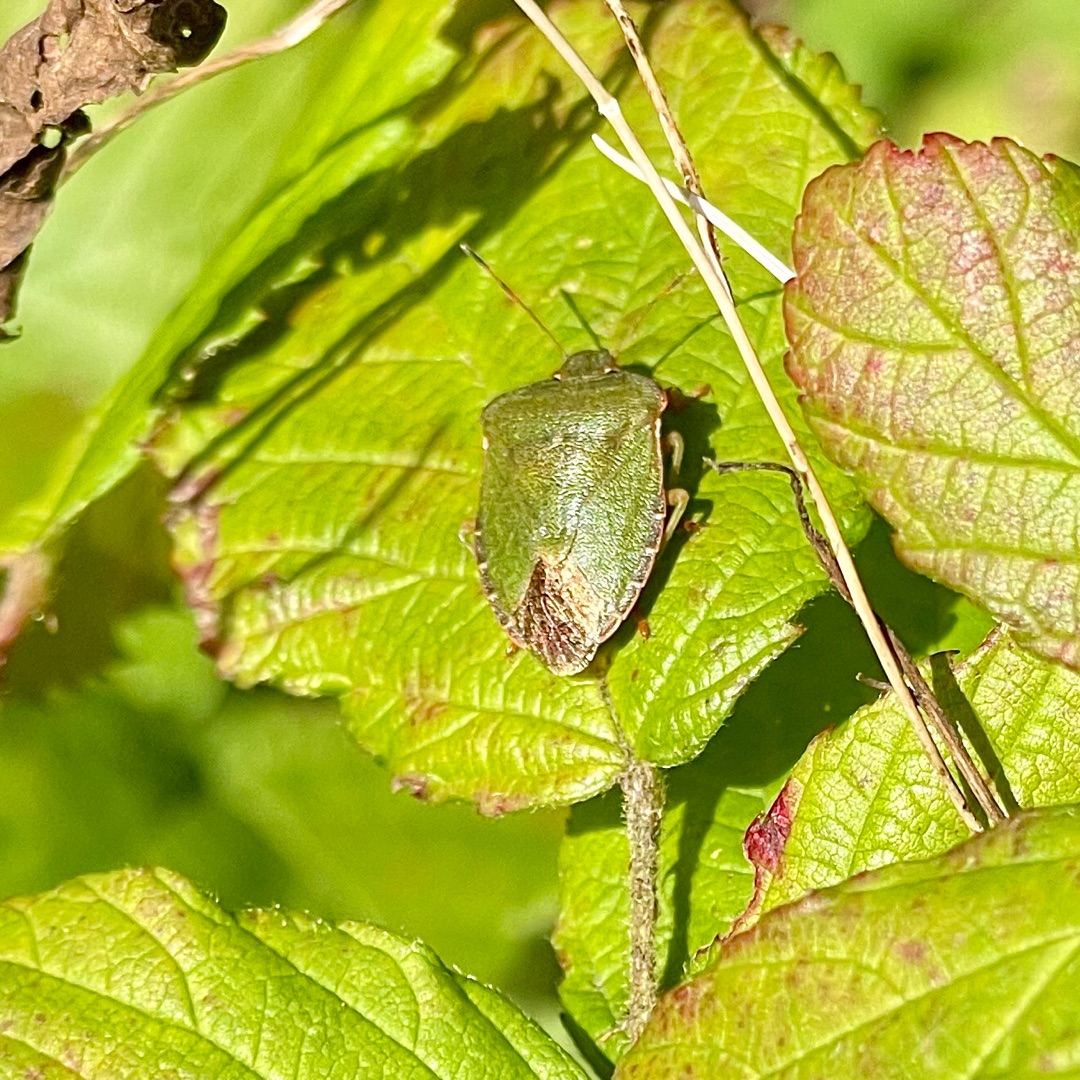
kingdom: Animalia
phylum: Arthropoda
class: Insecta
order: Hemiptera
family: Pentatomidae
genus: Palomena
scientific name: Palomena prasina
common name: Grøn bredtæge
